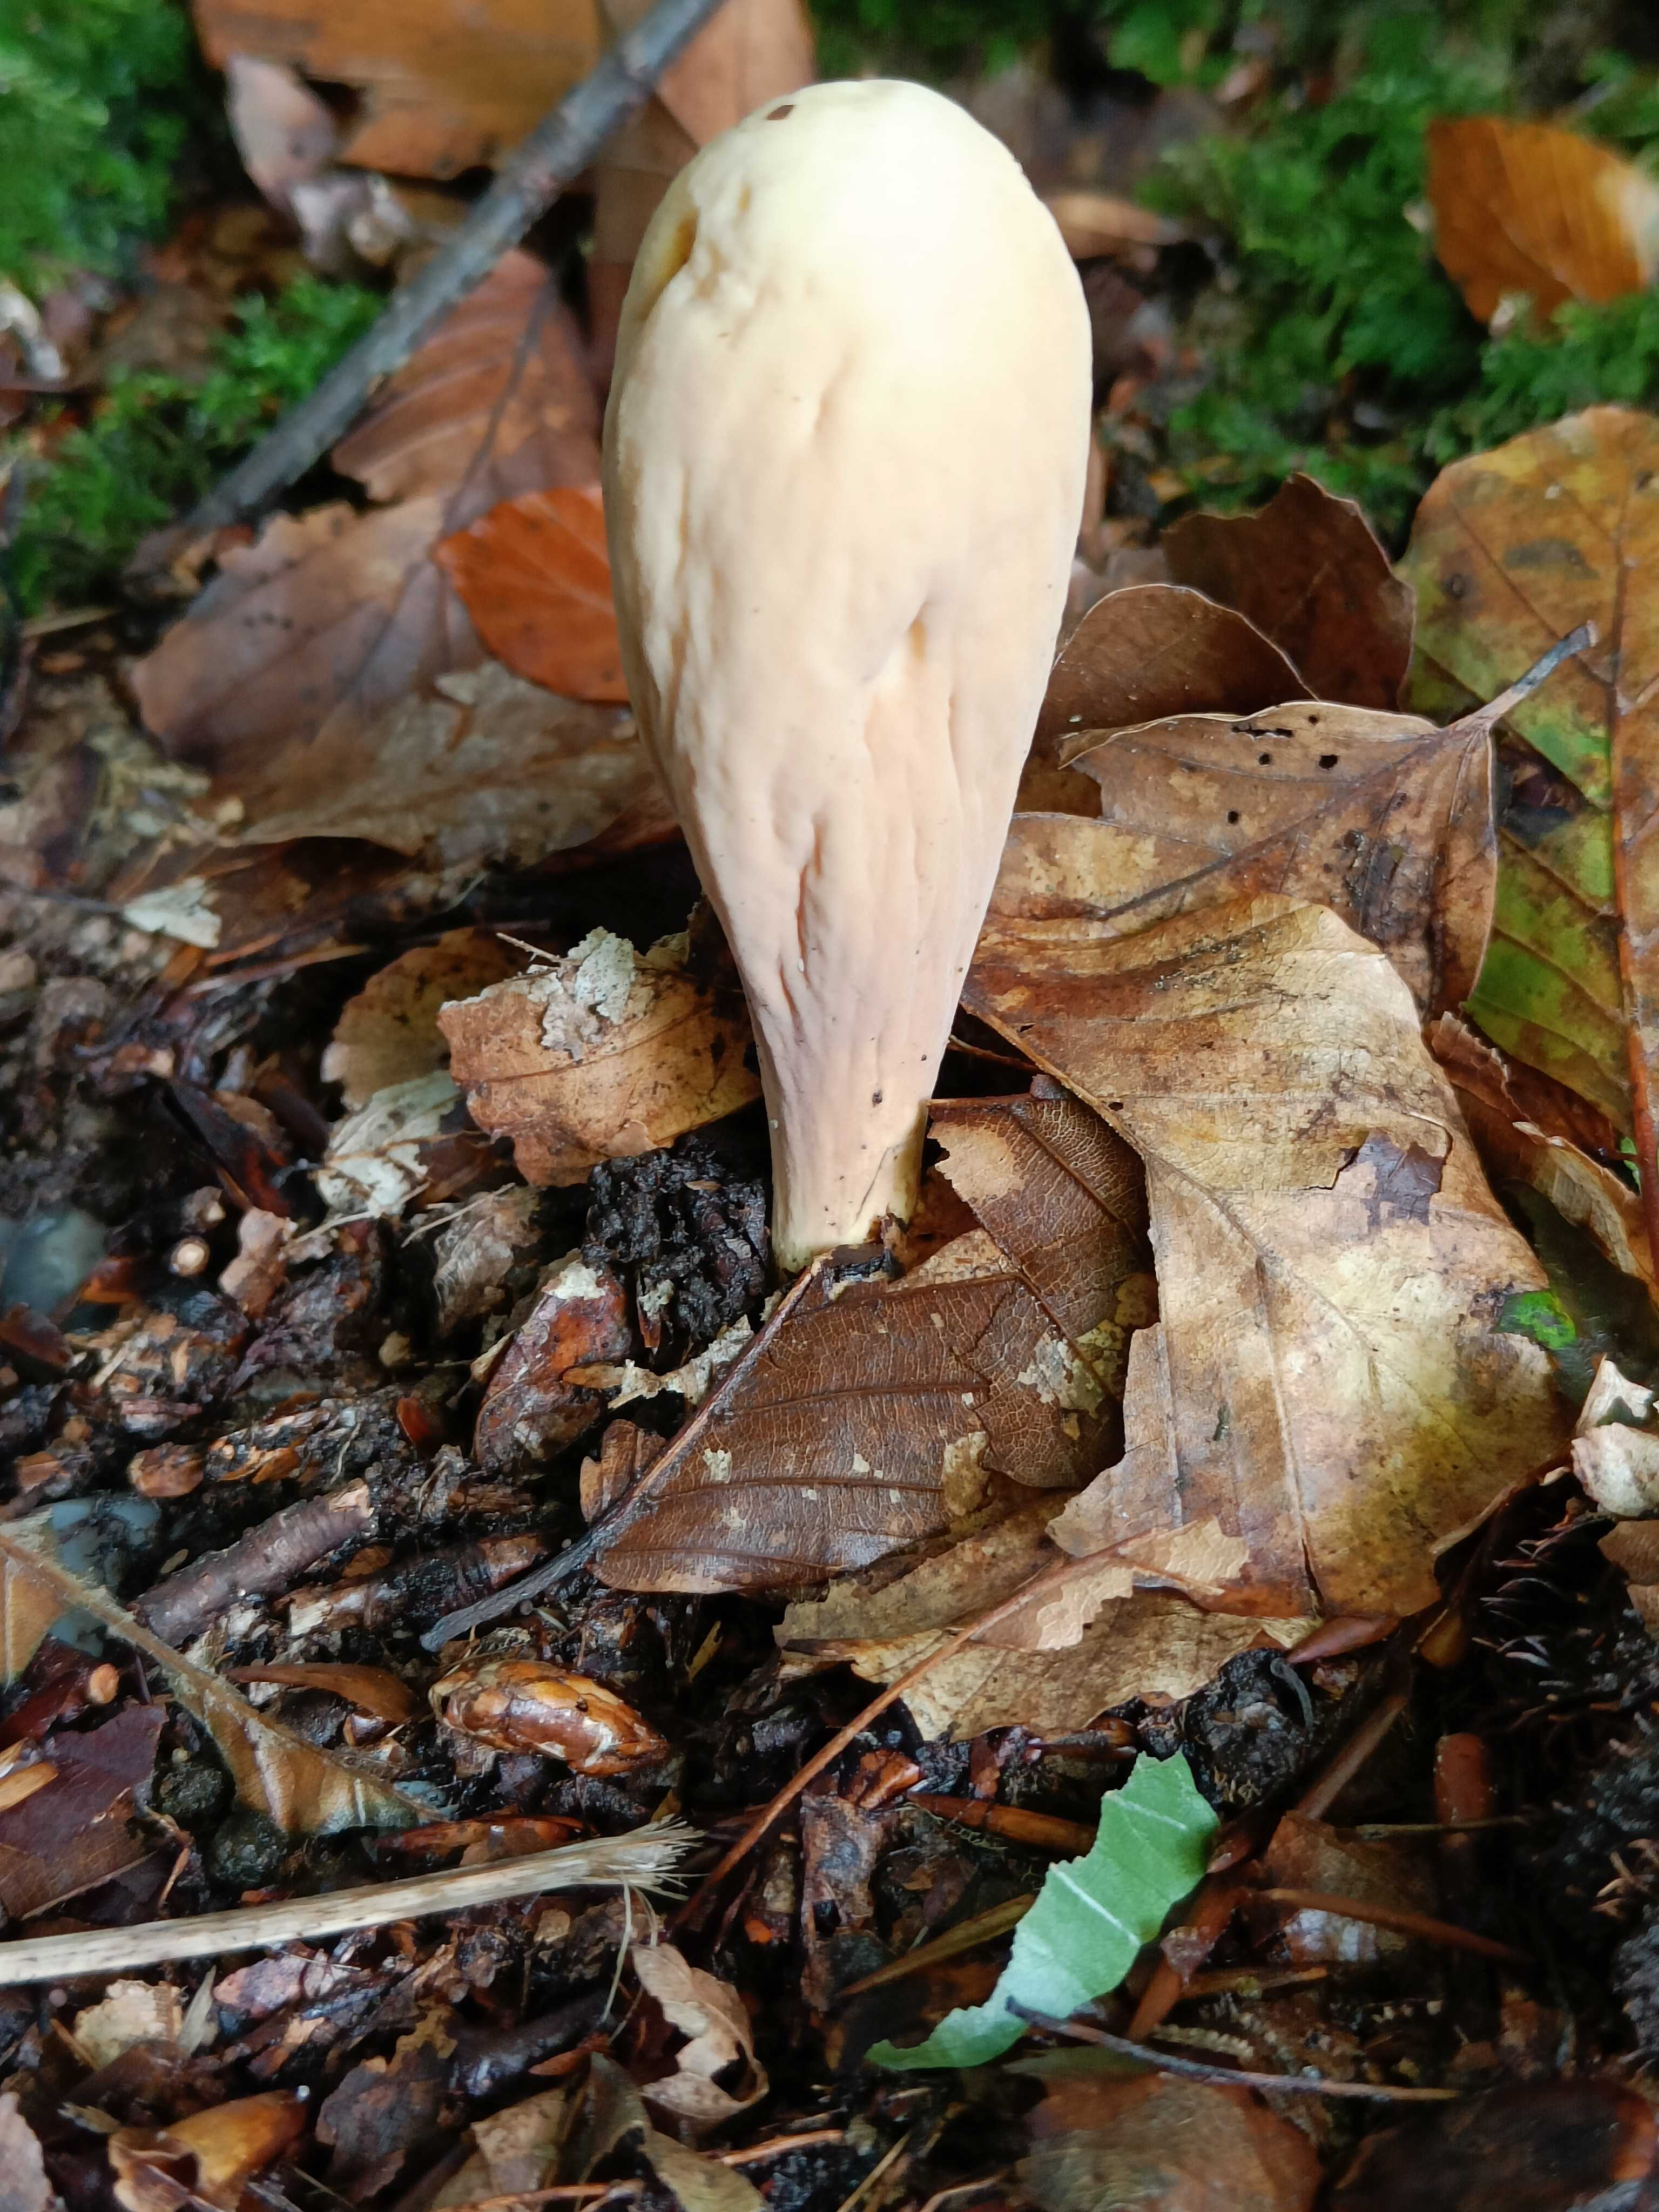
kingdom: Fungi
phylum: Basidiomycota
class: Agaricomycetes
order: Gomphales
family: Clavariadelphaceae
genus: Clavariadelphus
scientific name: Clavariadelphus pistillaris
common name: herkules-kæmpekølle
